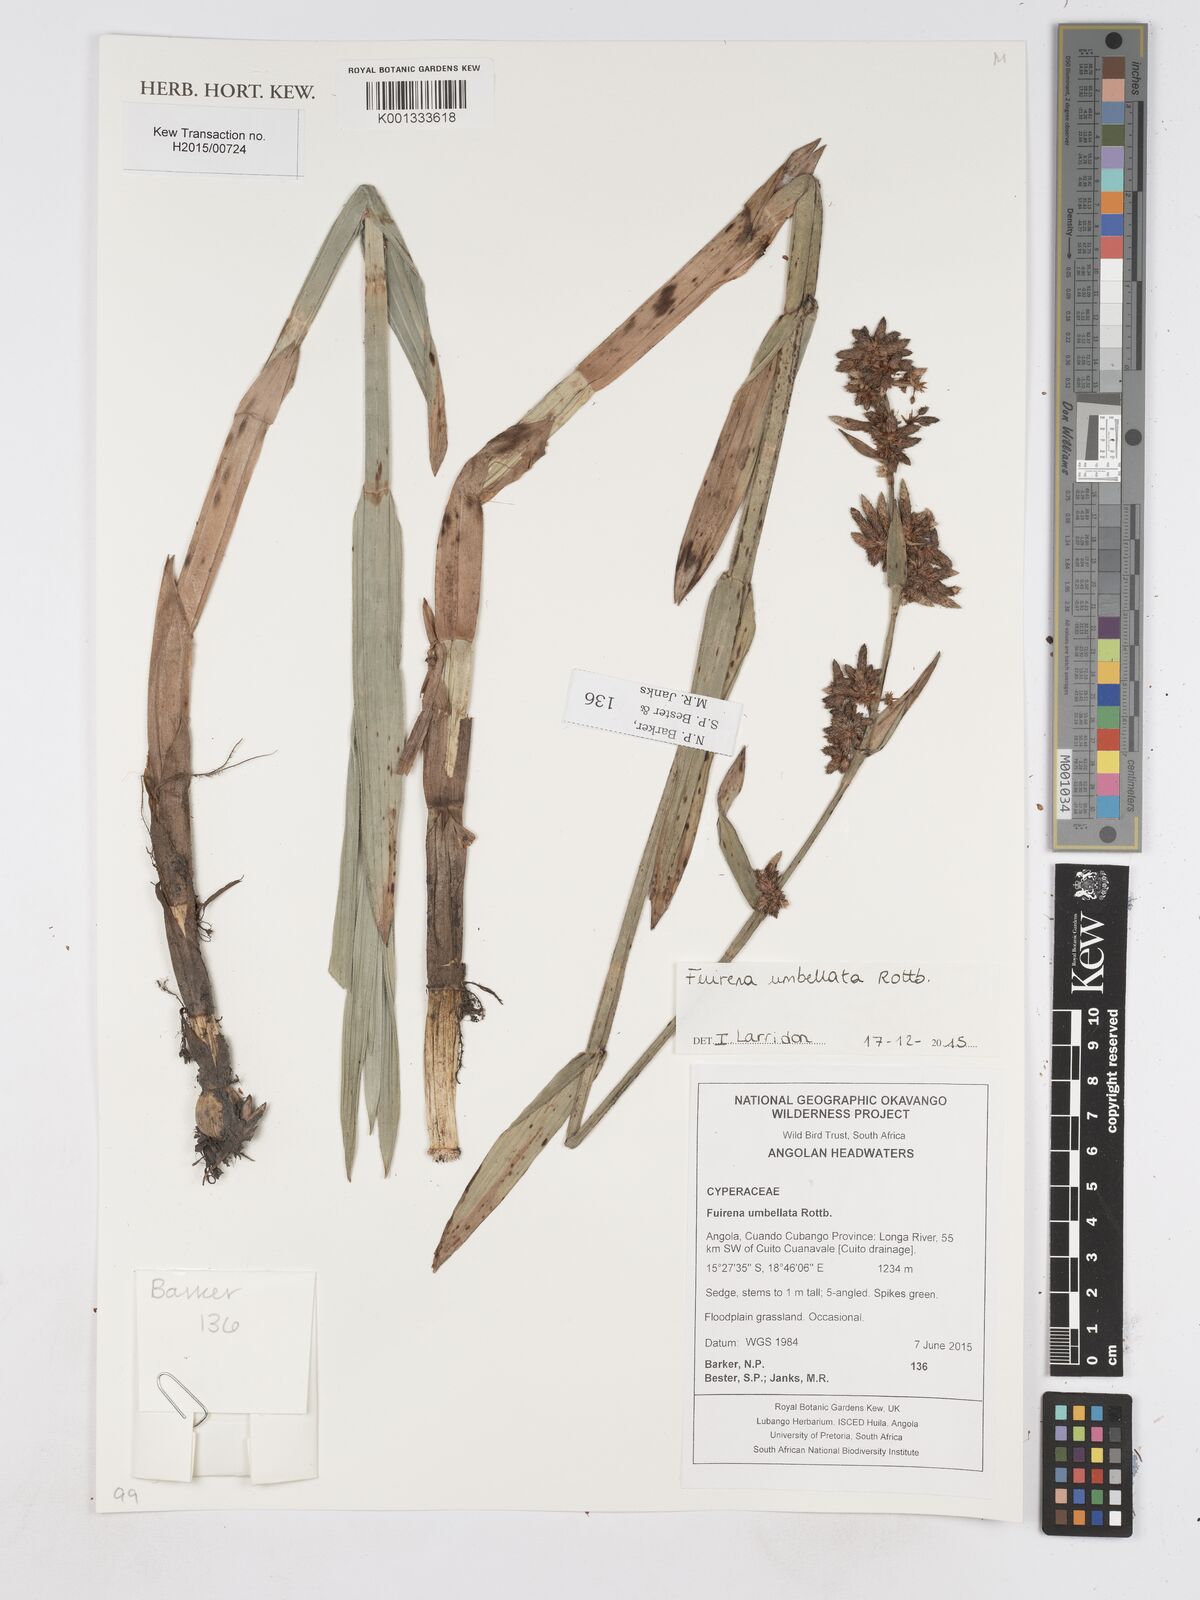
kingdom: Plantae
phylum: Tracheophyta
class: Liliopsida
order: Poales
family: Cyperaceae
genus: Fuirena
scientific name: Fuirena umbellata
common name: Yefen
